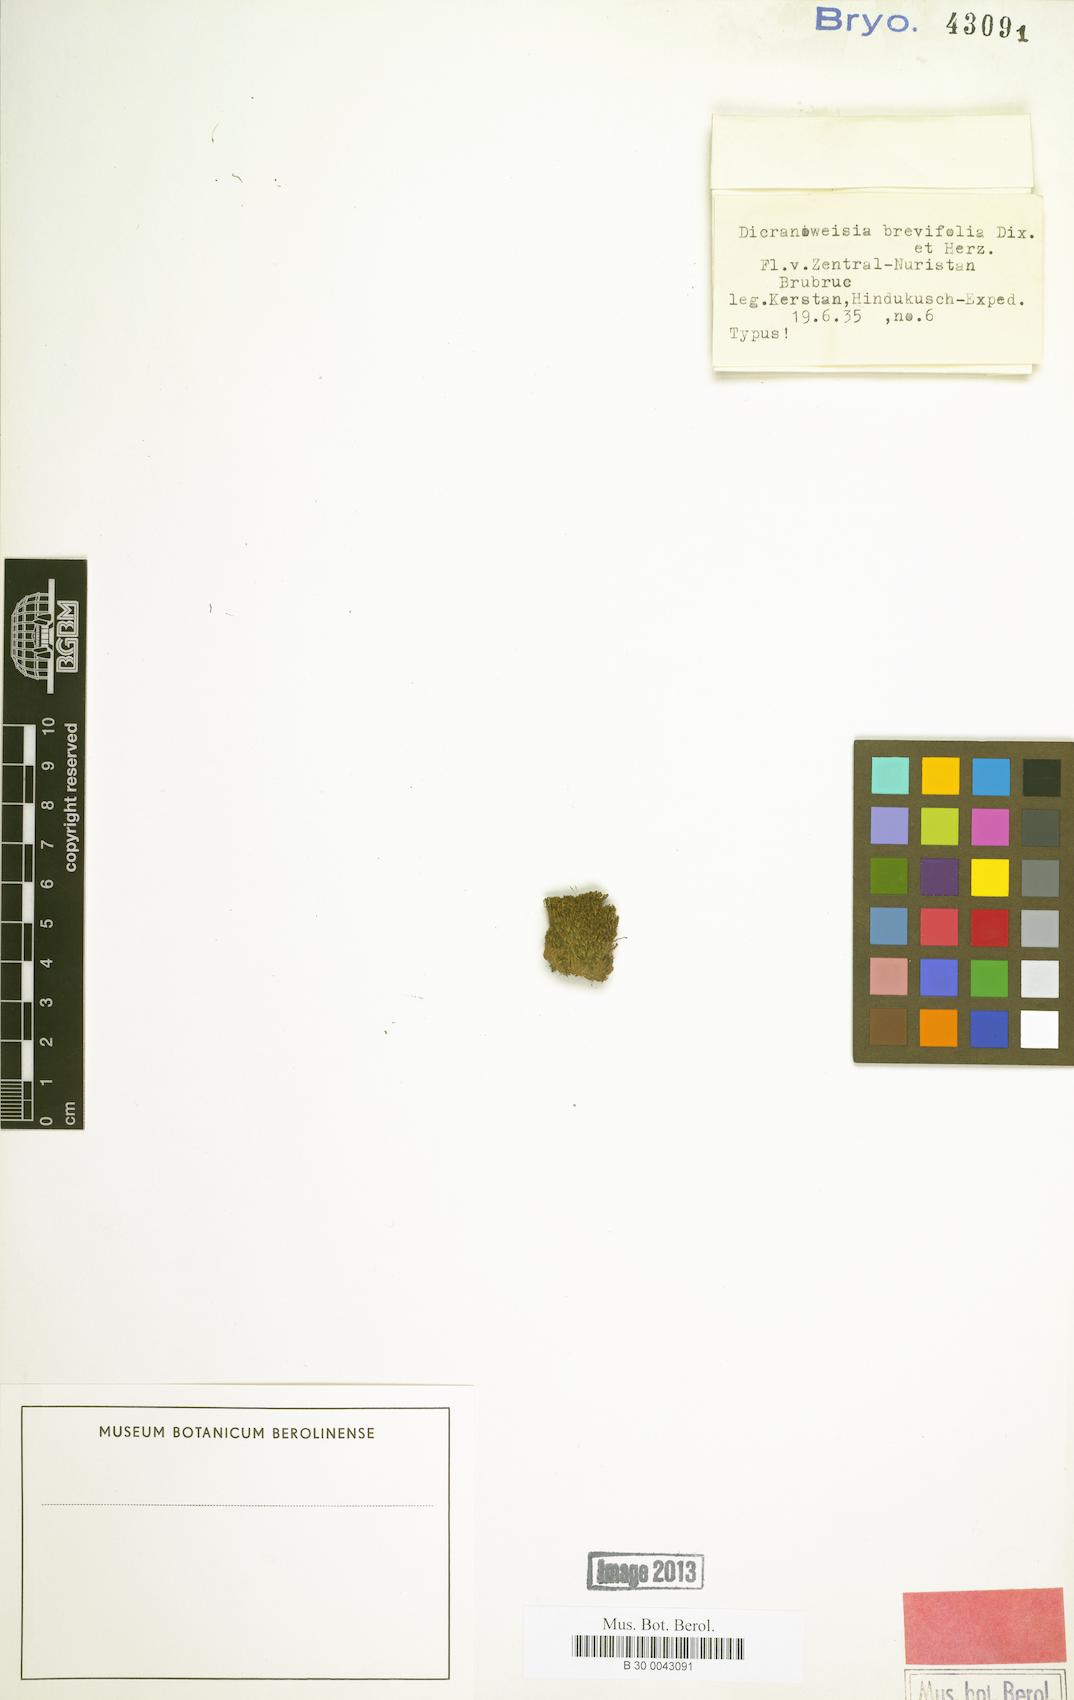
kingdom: Plantae
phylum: Bryophyta
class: Bryopsida
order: Scouleriales
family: Hymenolomataceae
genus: Hymenoloma
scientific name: Hymenoloma brevifolium
